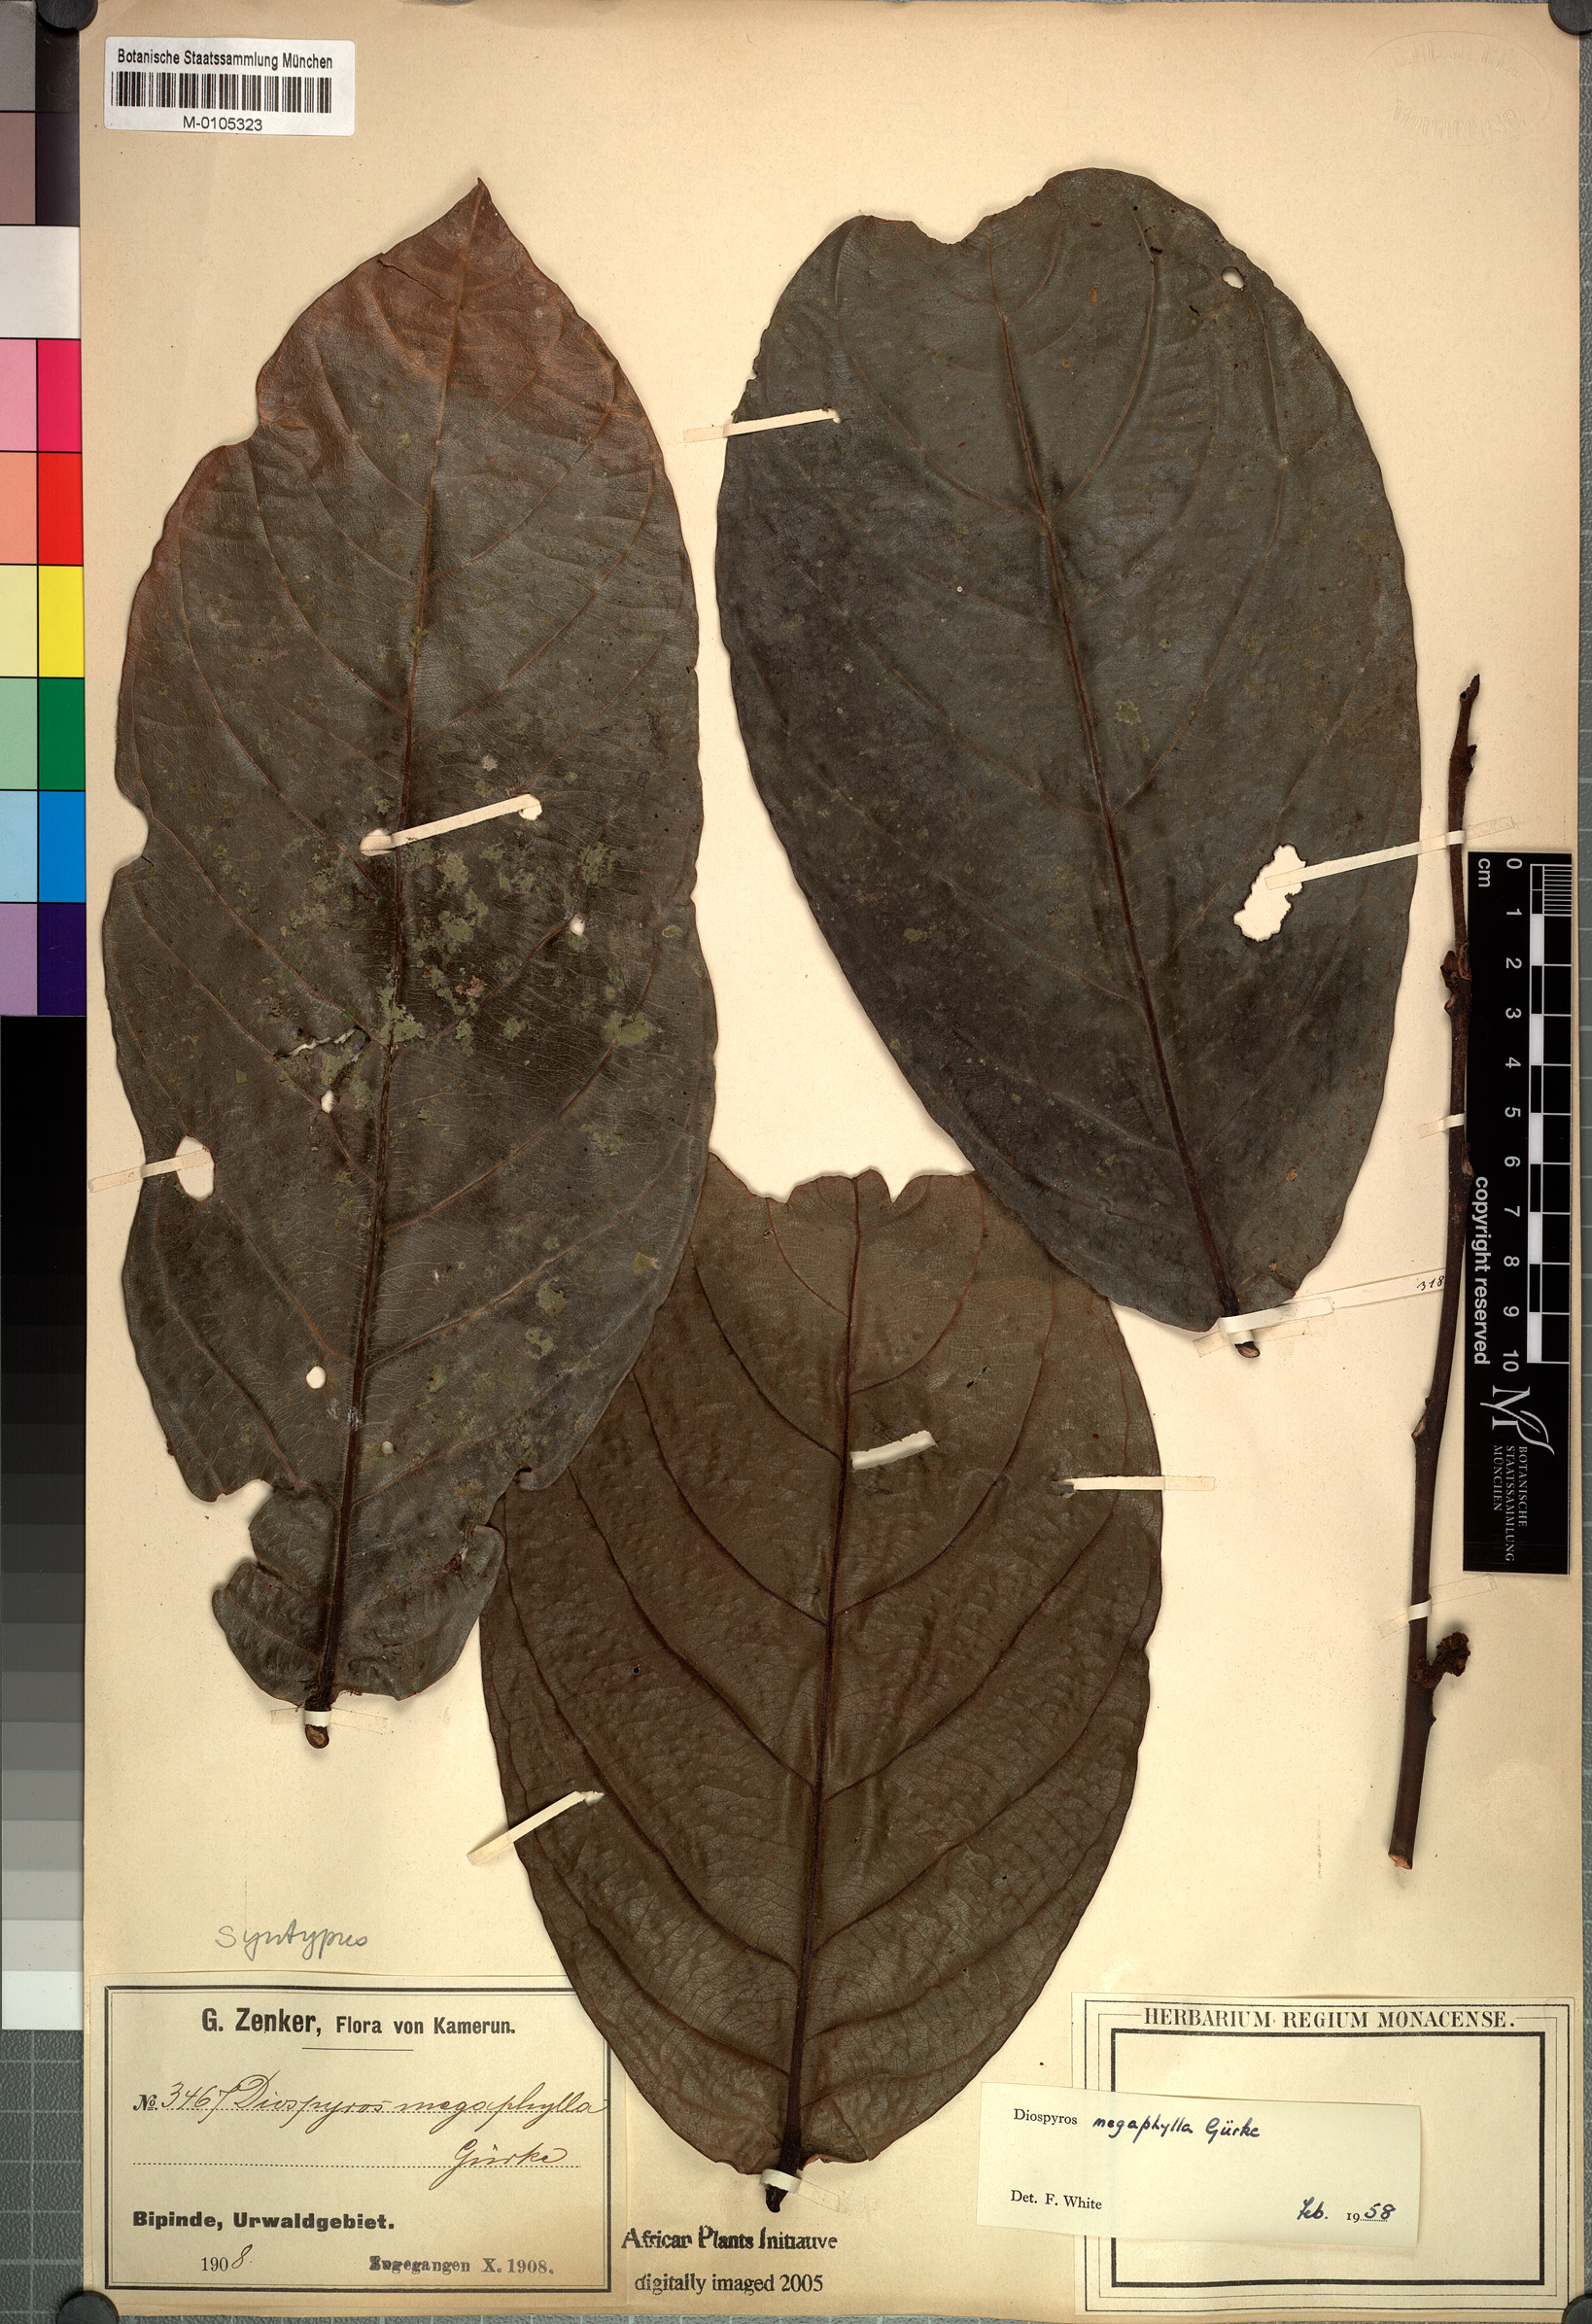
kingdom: Plantae
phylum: Tracheophyta
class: Magnoliopsida
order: Ericales
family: Ebenaceae
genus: Diospyros
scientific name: Diospyros gabunensis
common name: Flint bark tree
